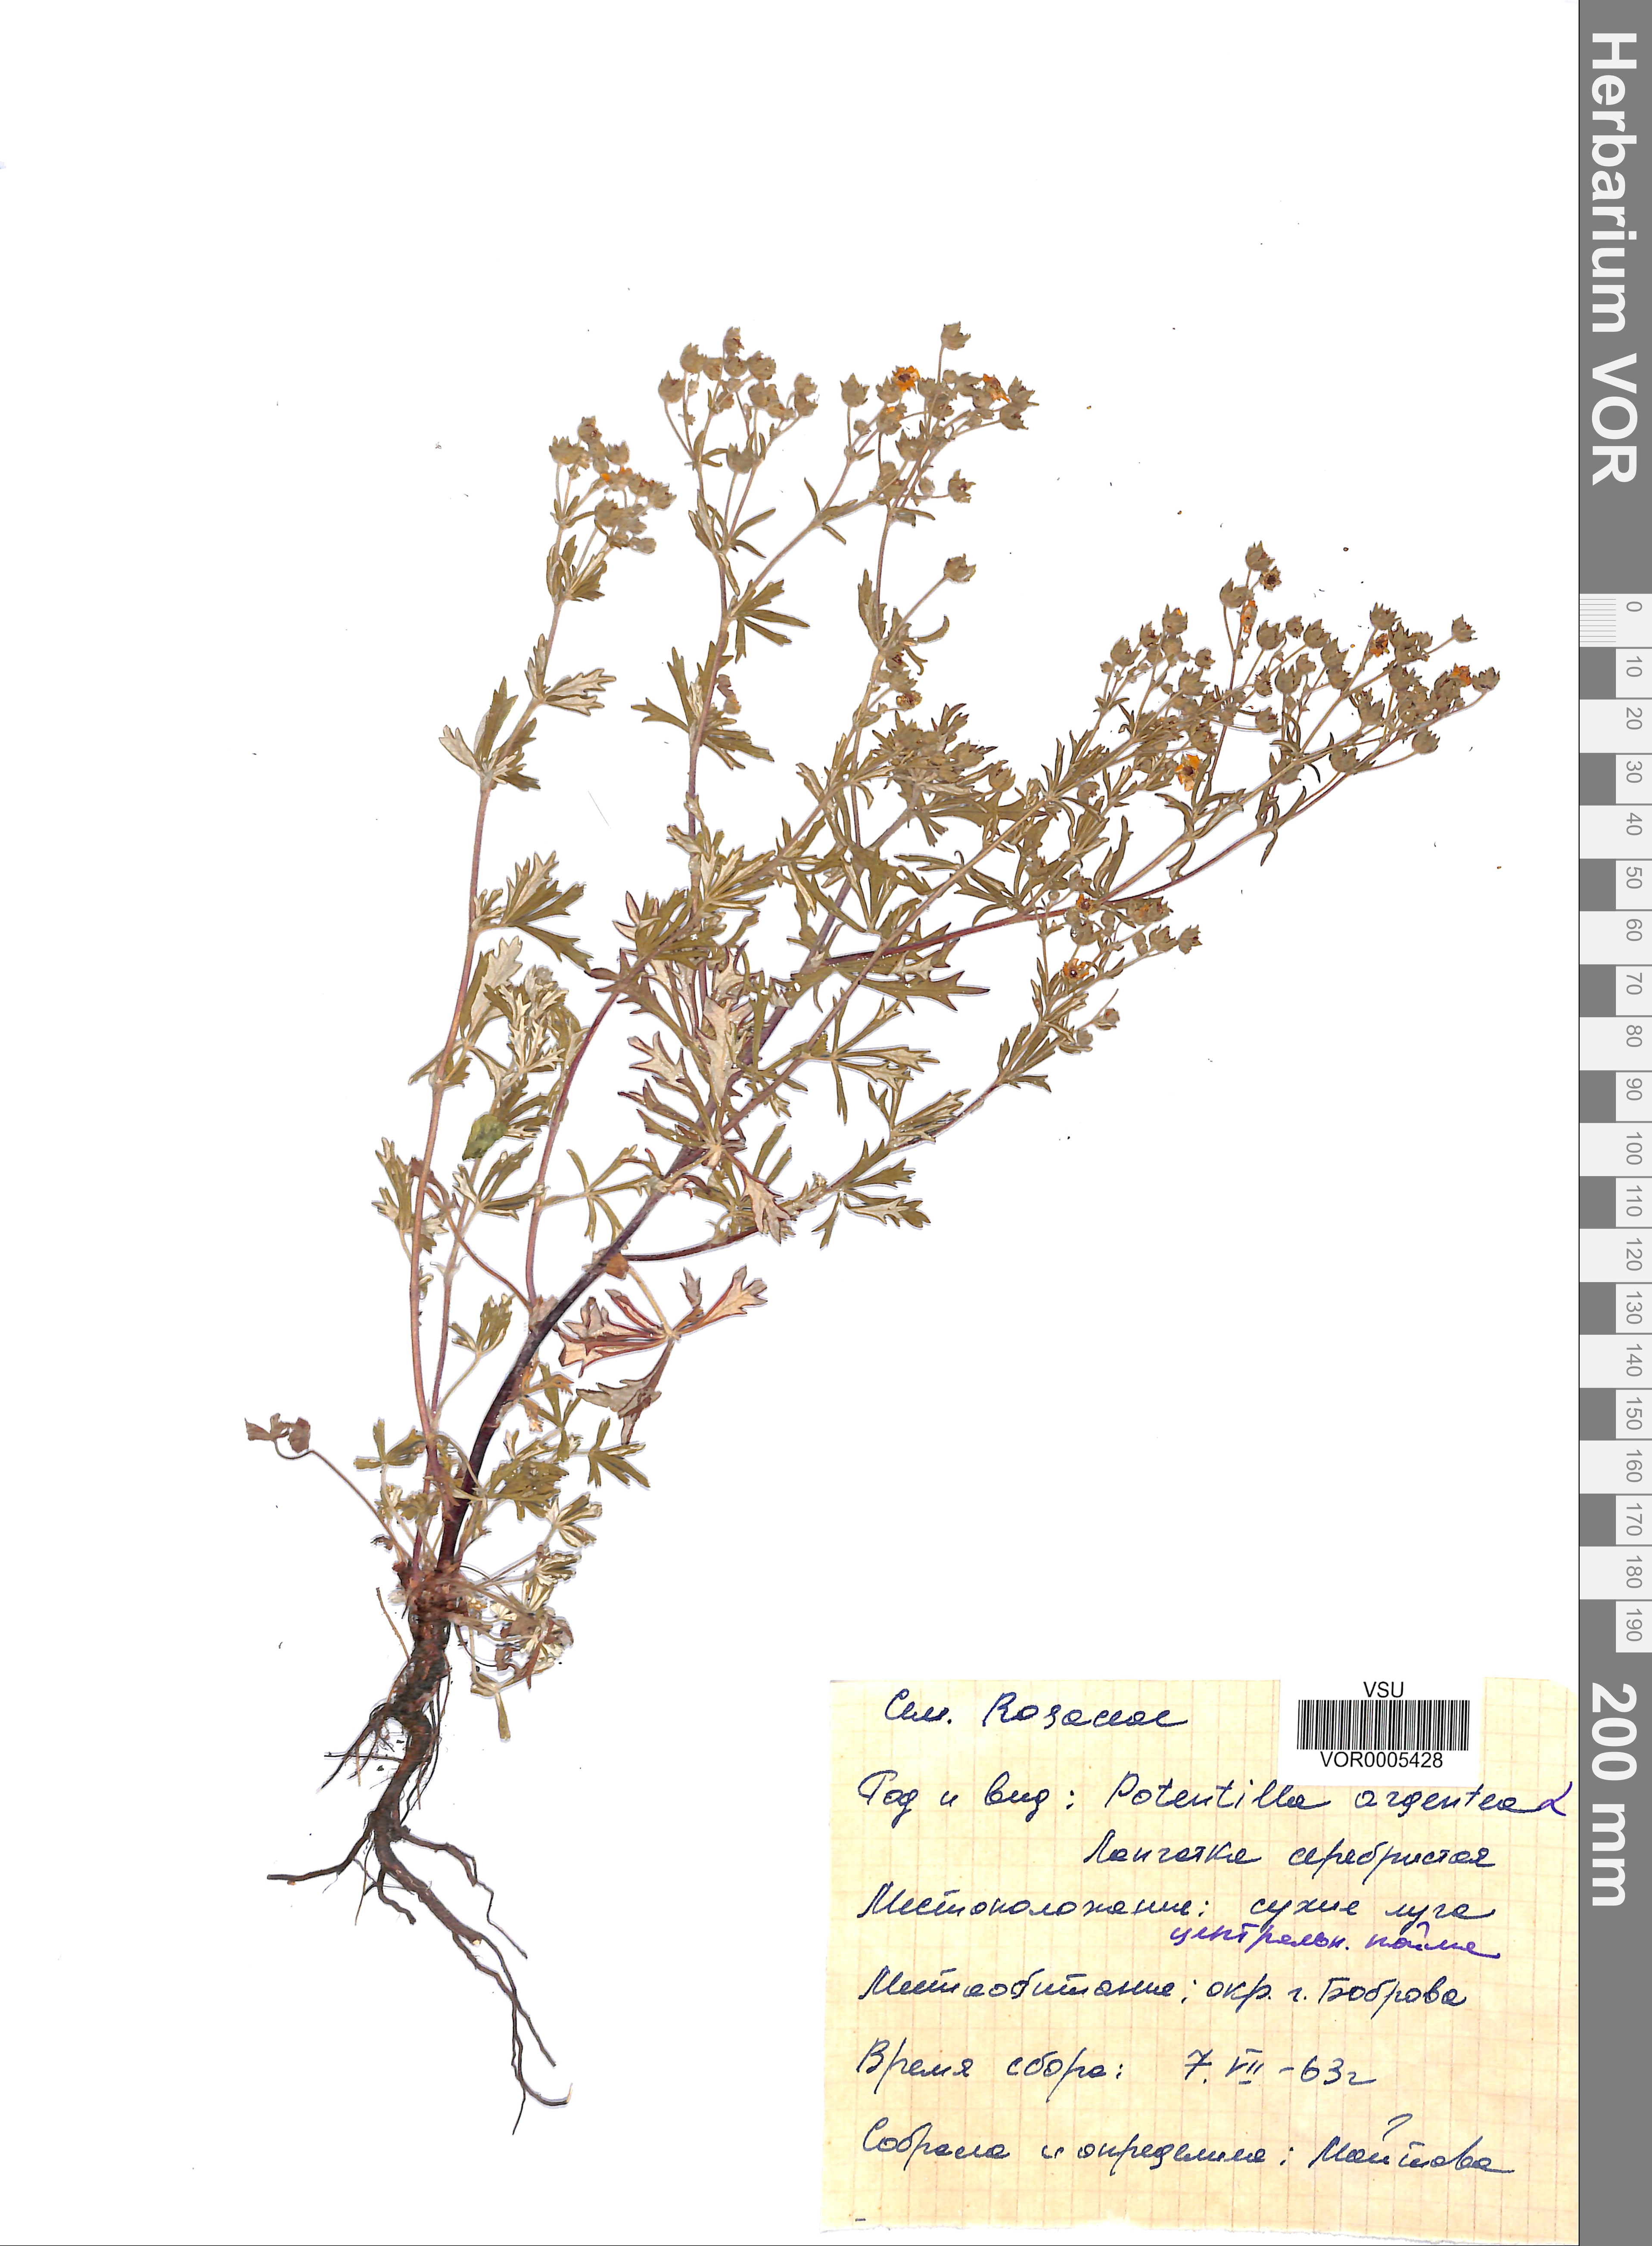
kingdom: Plantae
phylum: Tracheophyta
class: Magnoliopsida
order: Rosales
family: Rosaceae
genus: Potentilla
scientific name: Potentilla argentea
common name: Hoary cinquefoil
